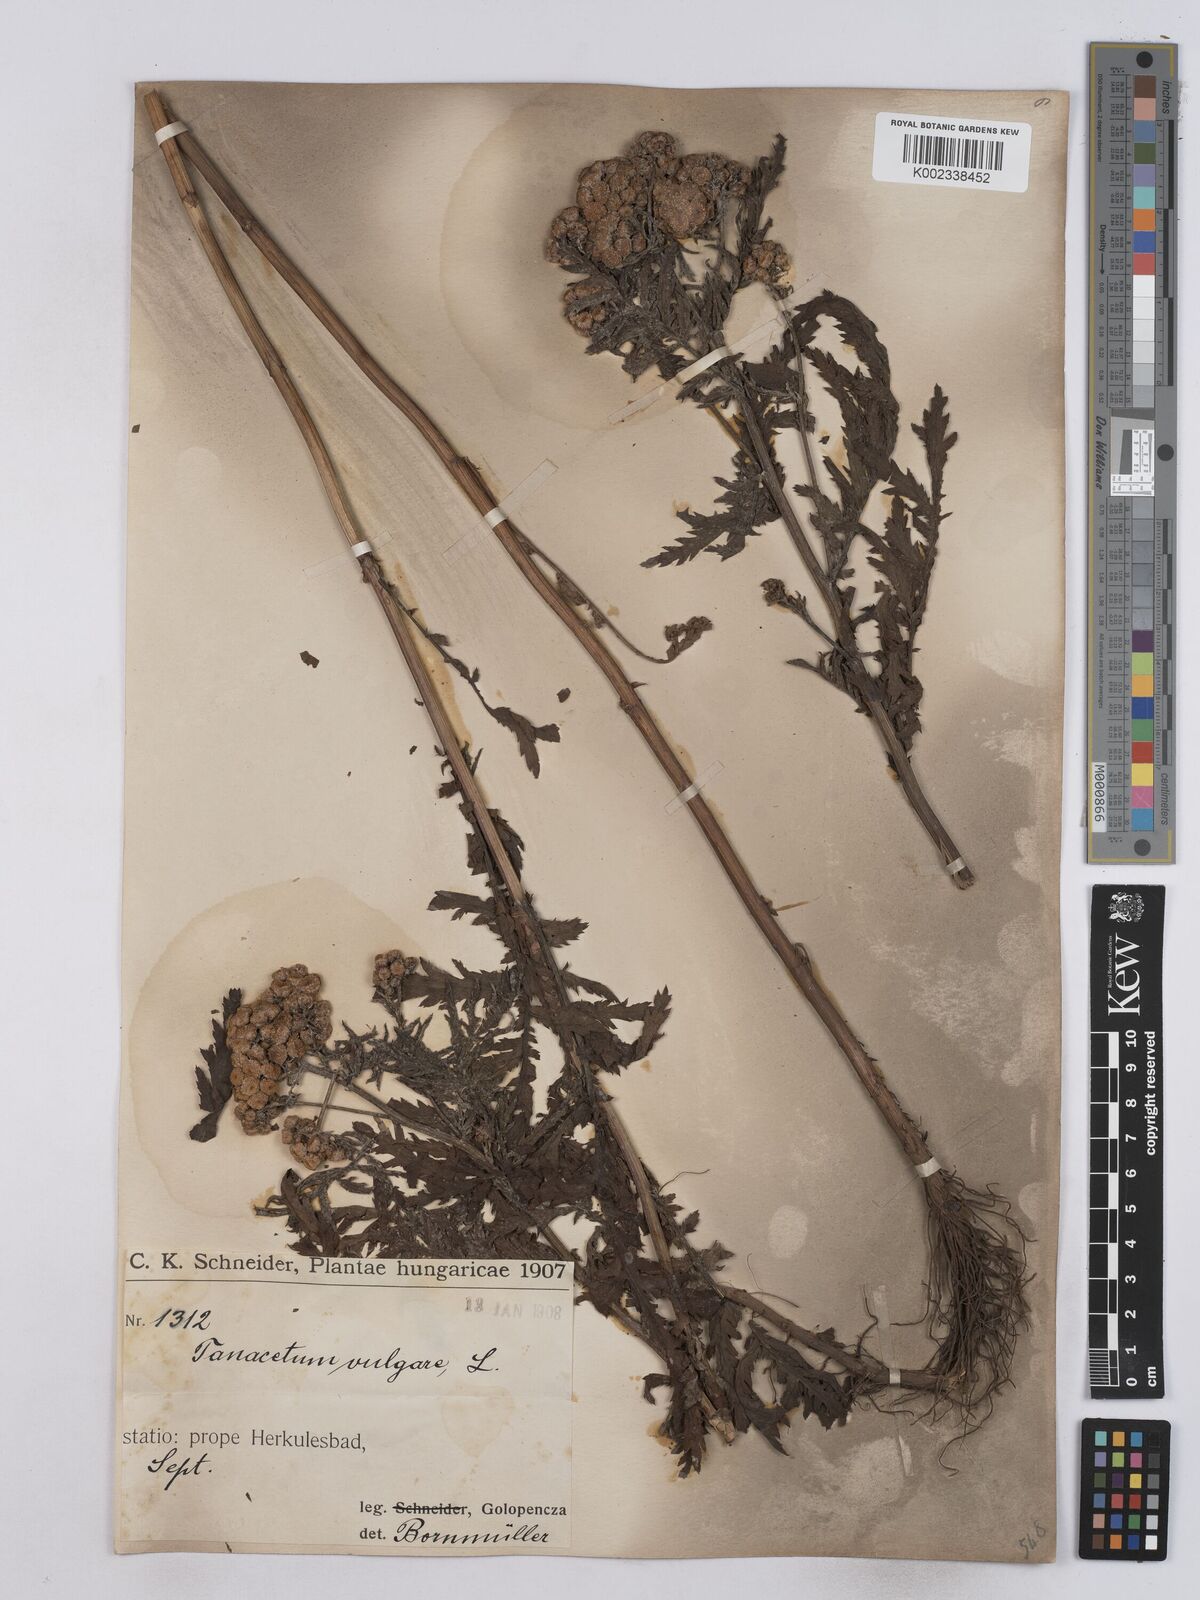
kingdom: Plantae
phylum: Tracheophyta
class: Magnoliopsida
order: Asterales
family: Asteraceae
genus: Tanacetum
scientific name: Tanacetum vulgare
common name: Common tansy
